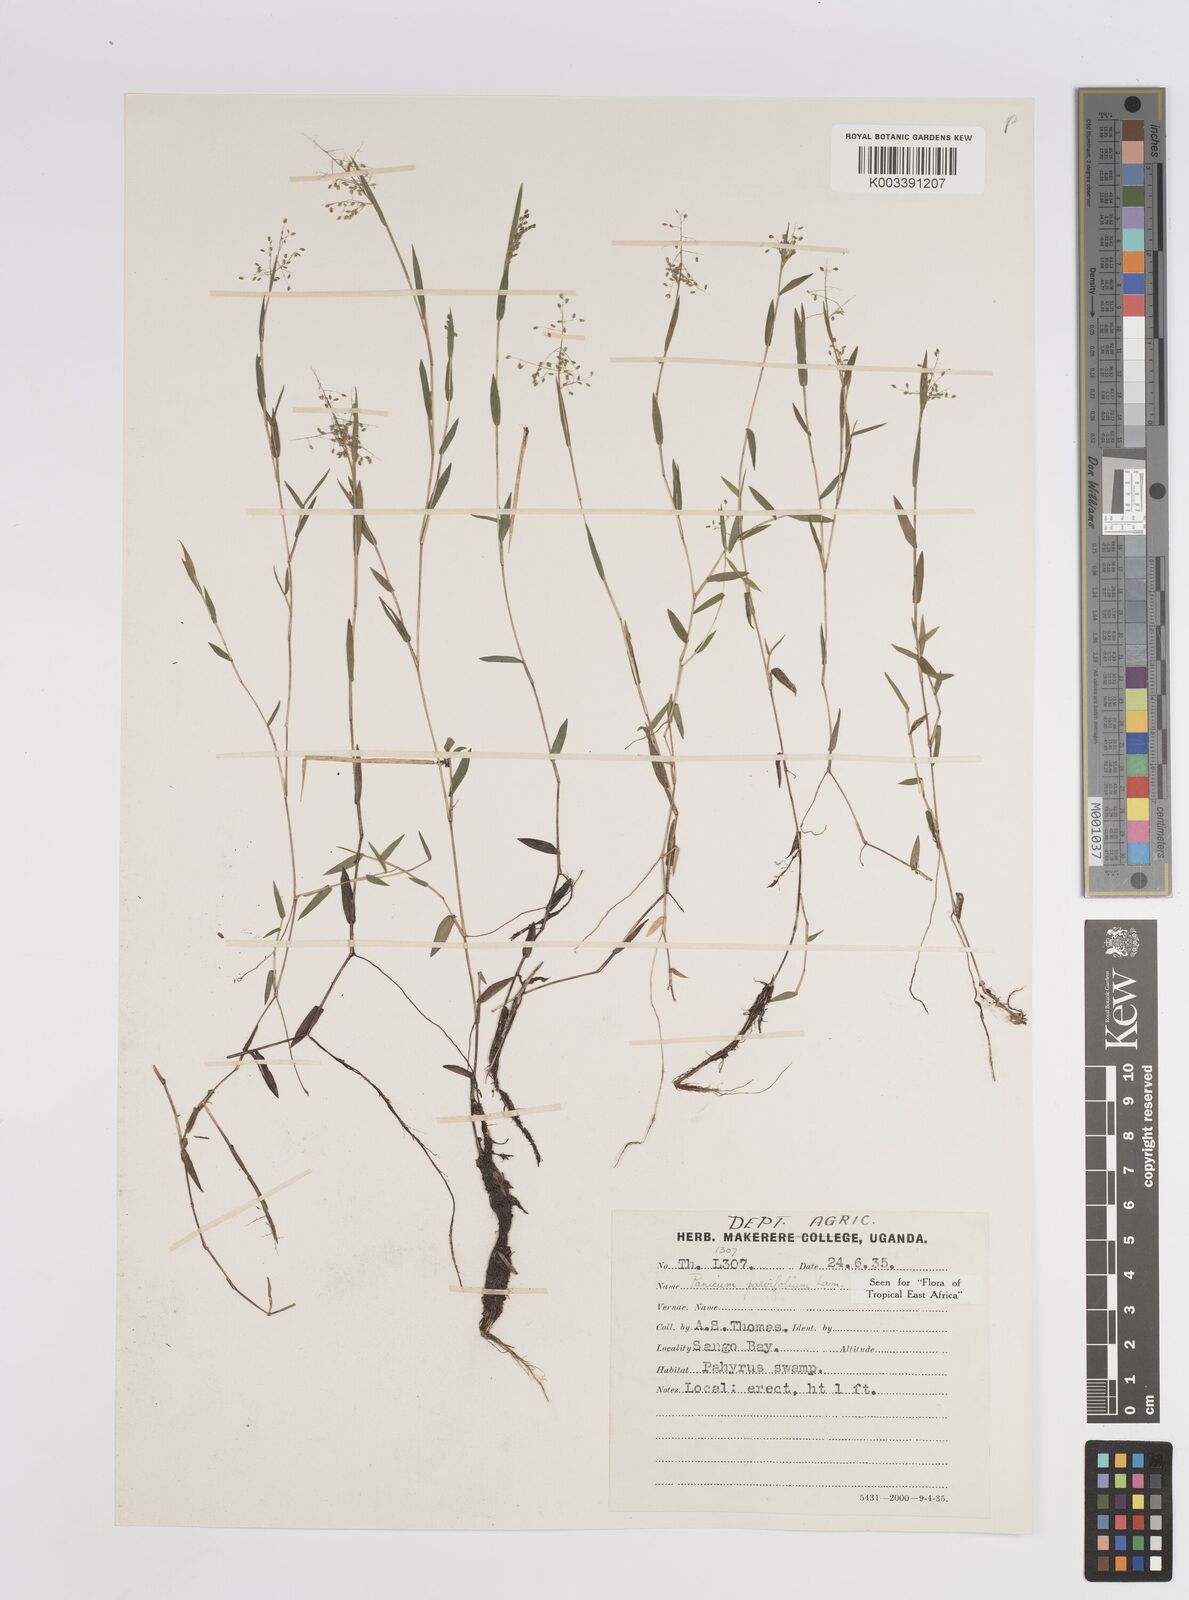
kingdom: Plantae
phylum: Tracheophyta
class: Liliopsida
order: Poales
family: Poaceae
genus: Trichanthecium
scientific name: Trichanthecium parvifolium
